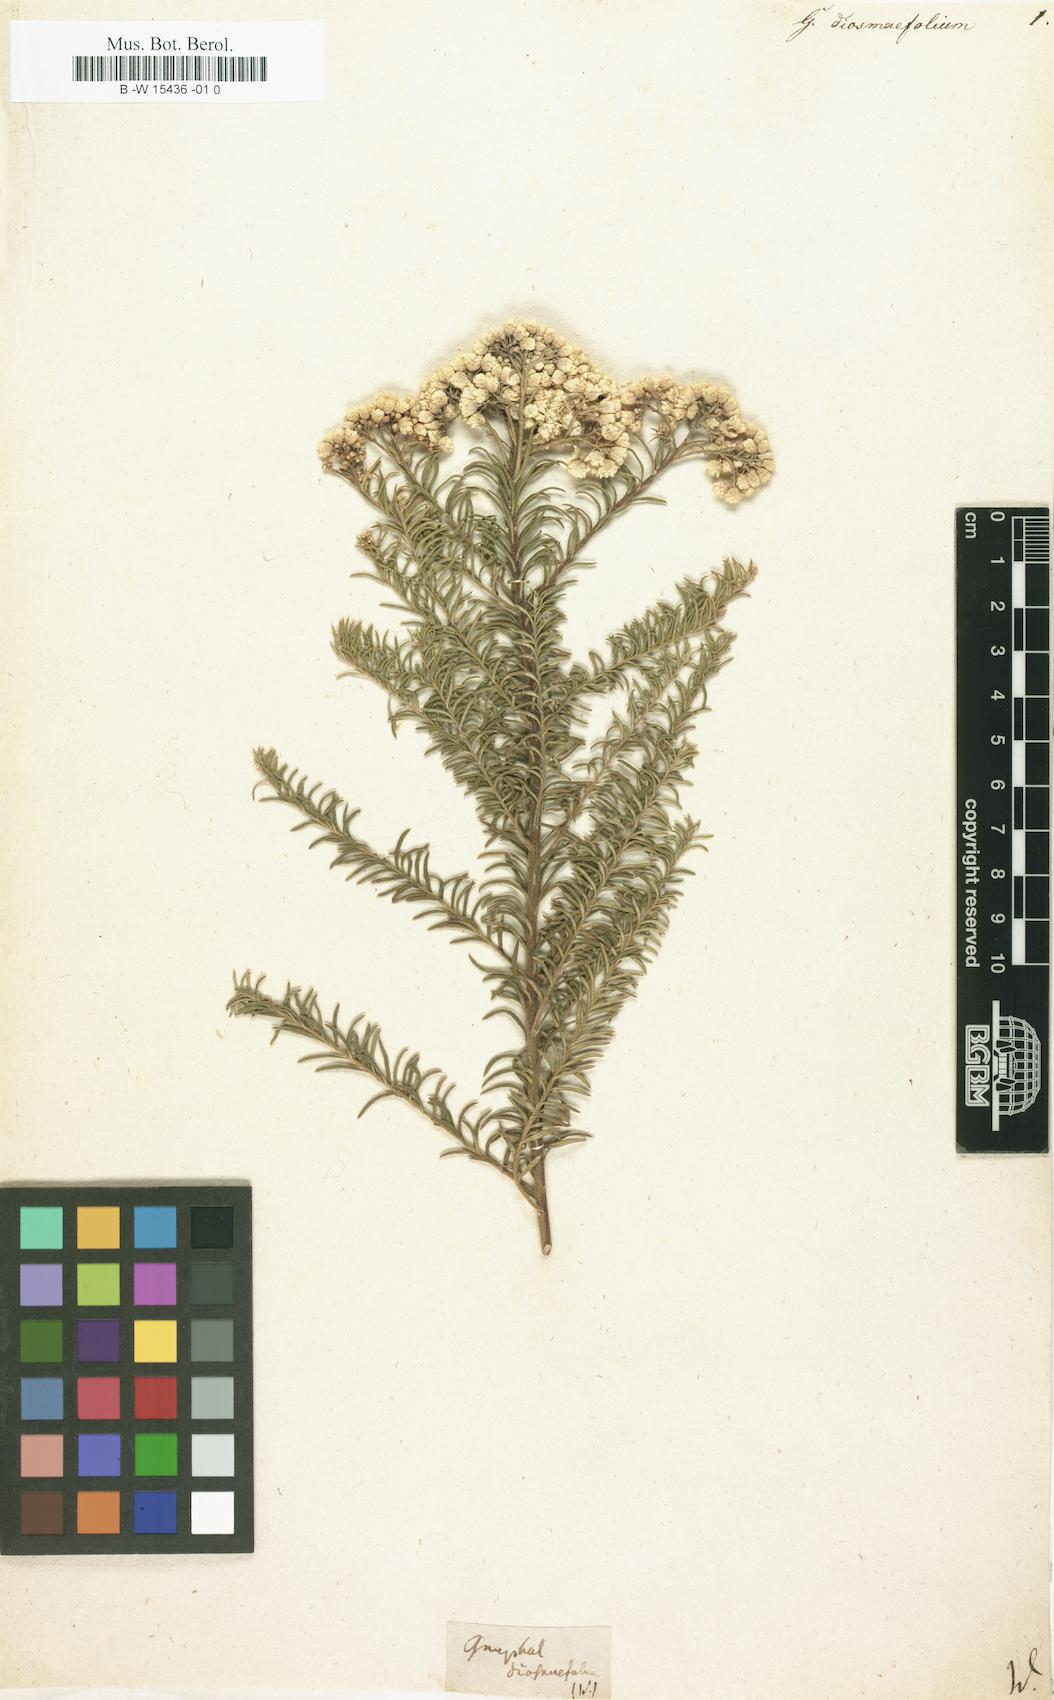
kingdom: Plantae
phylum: Tracheophyta
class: Magnoliopsida
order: Asterales
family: Asteraceae
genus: Ozothamnus
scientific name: Ozothamnus diosmifolius
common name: White-dogwood
